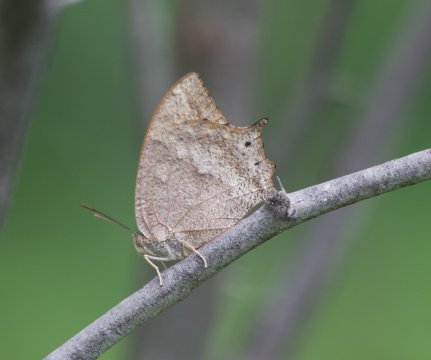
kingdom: Animalia
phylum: Arthropoda
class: Insecta
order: Lepidoptera
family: Nymphalidae
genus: Anaea
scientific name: Anaea aidea
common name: Tropical Leafwing
